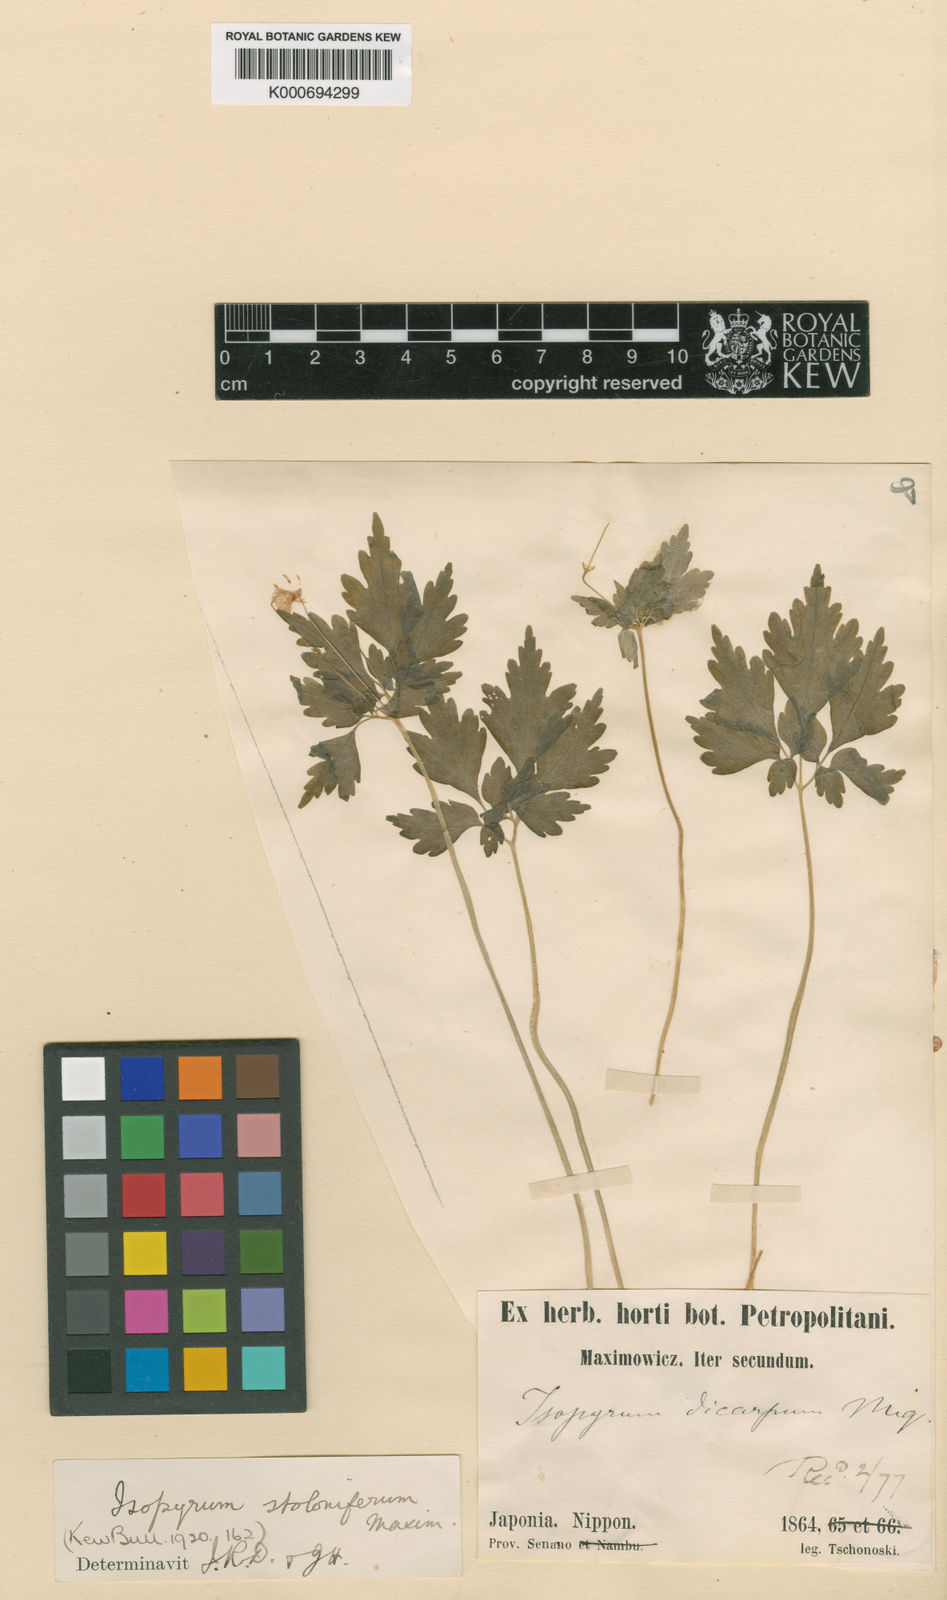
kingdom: Plantae
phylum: Tracheophyta
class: Magnoliopsida
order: Ranunculales
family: Ranunculaceae
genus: Dichocarpum
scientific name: Dichocarpum stoloniferum
